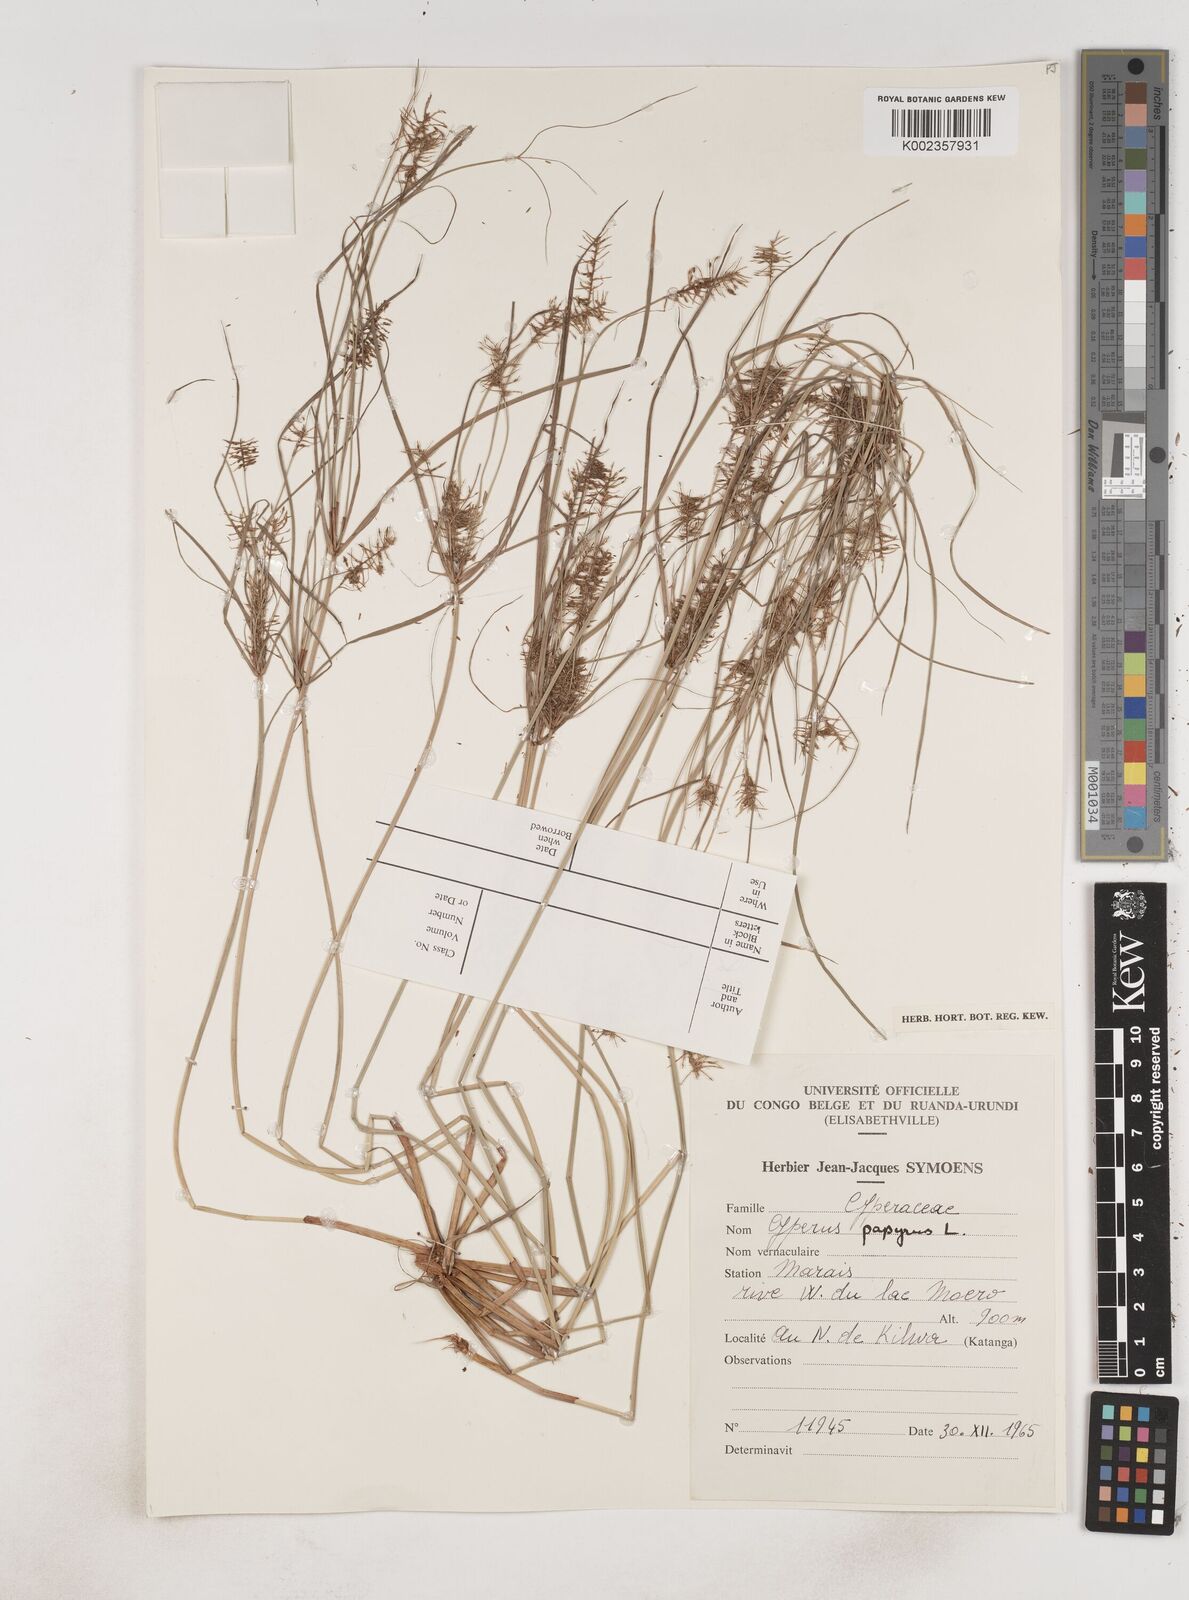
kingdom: Plantae
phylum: Tracheophyta
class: Liliopsida
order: Poales
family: Cyperaceae
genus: Cyperus
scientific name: Cyperus papyrus
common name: Papyrus
